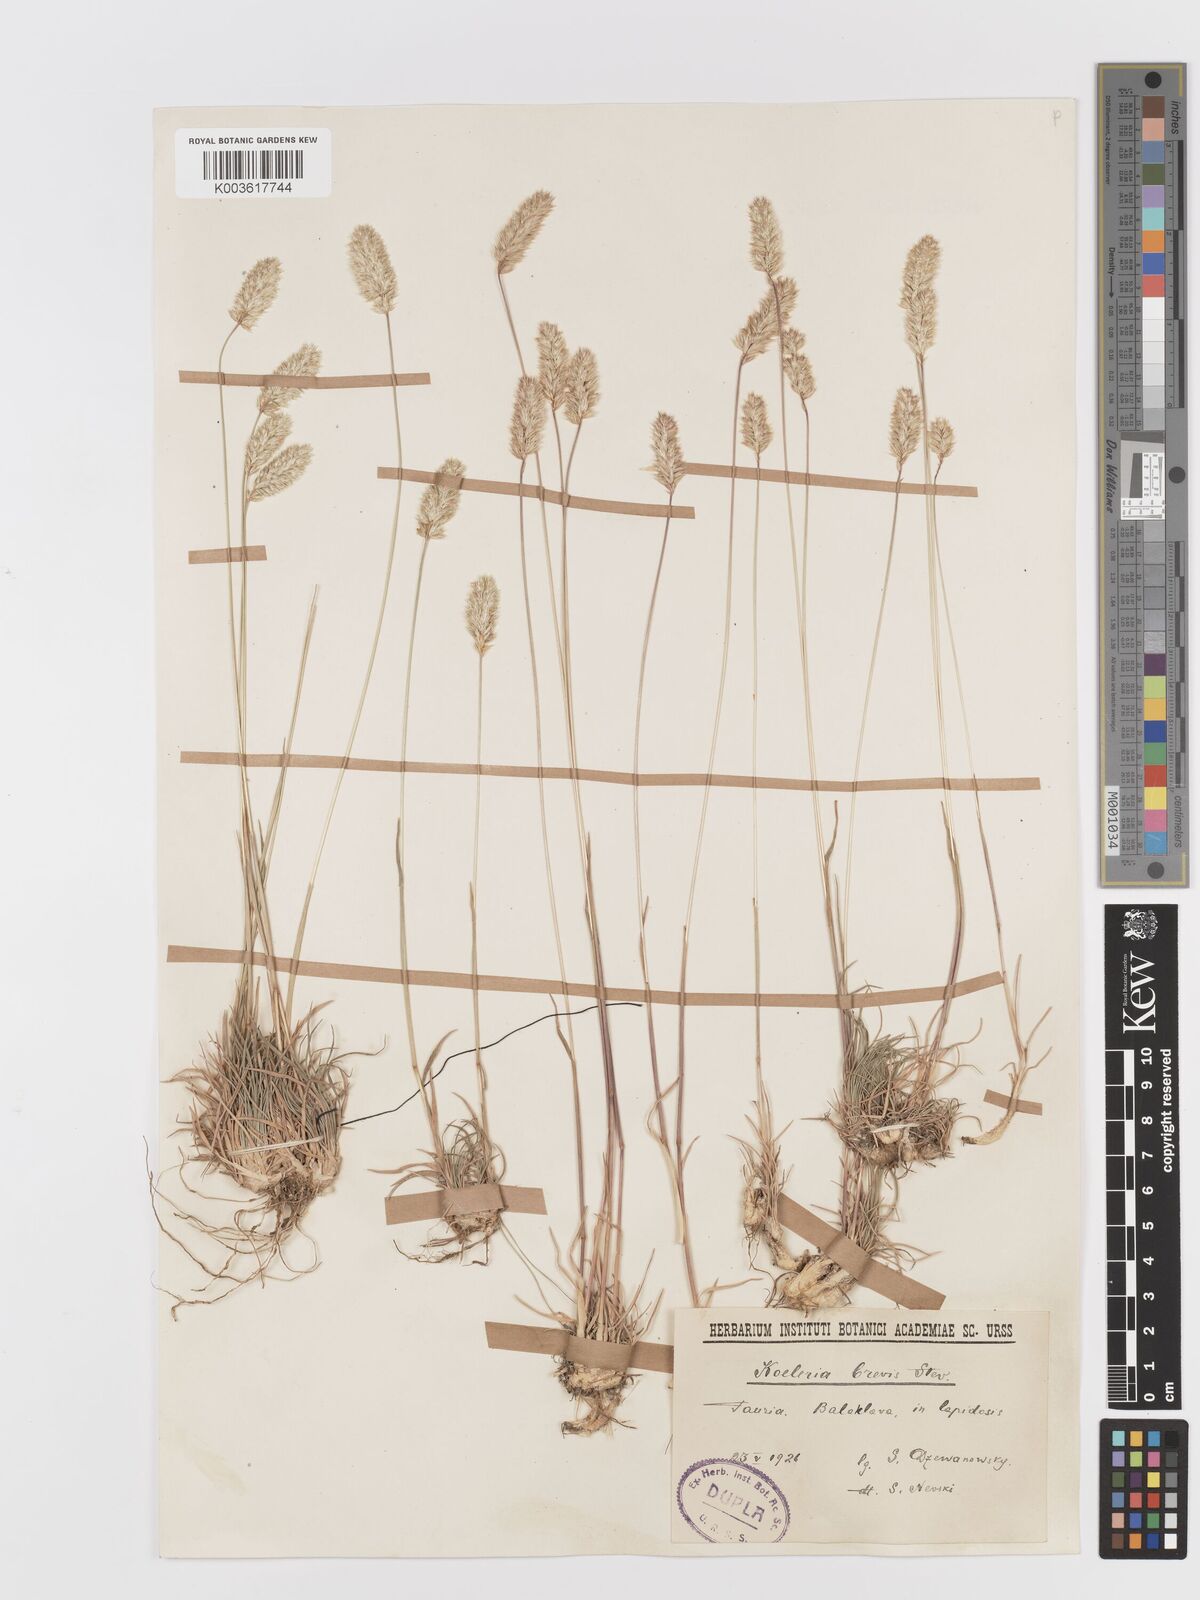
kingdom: Plantae
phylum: Tracheophyta
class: Liliopsida
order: Poales
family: Poaceae
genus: Koeleria
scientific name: Koeleria brevis
